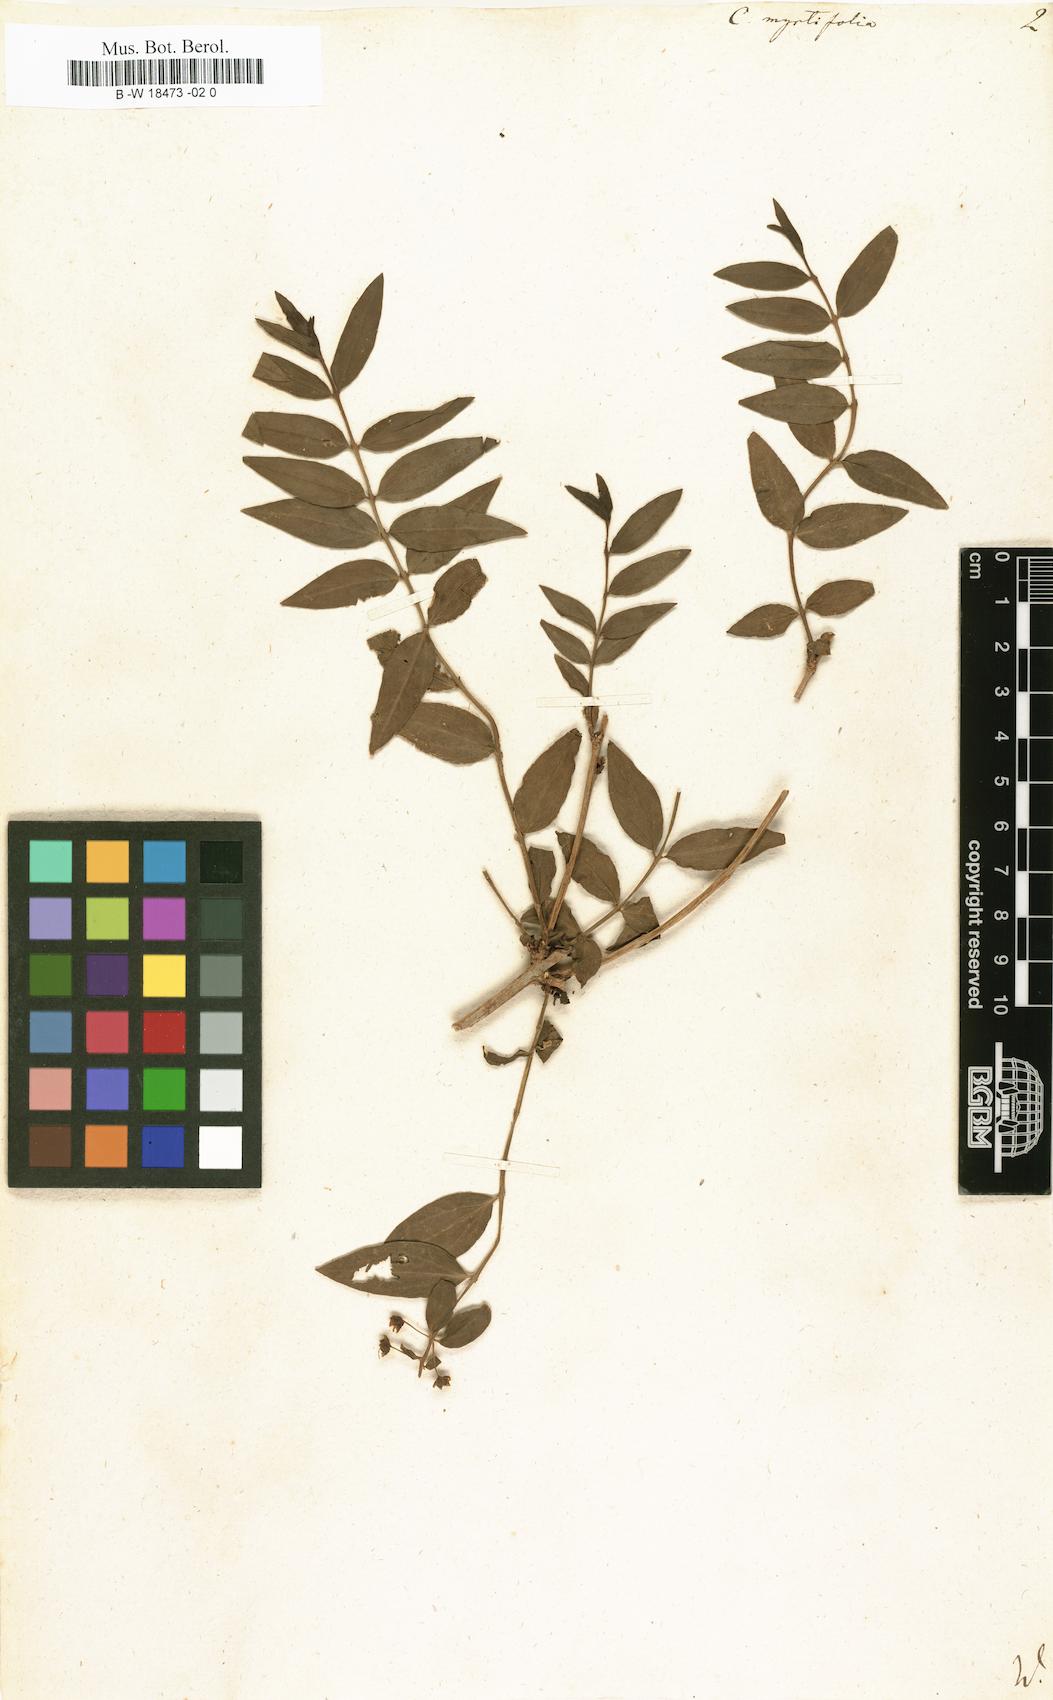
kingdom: Plantae
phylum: Tracheophyta
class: Magnoliopsida
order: Cucurbitales
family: Coriariaceae
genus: Coriaria
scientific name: Coriaria myrtifolia
